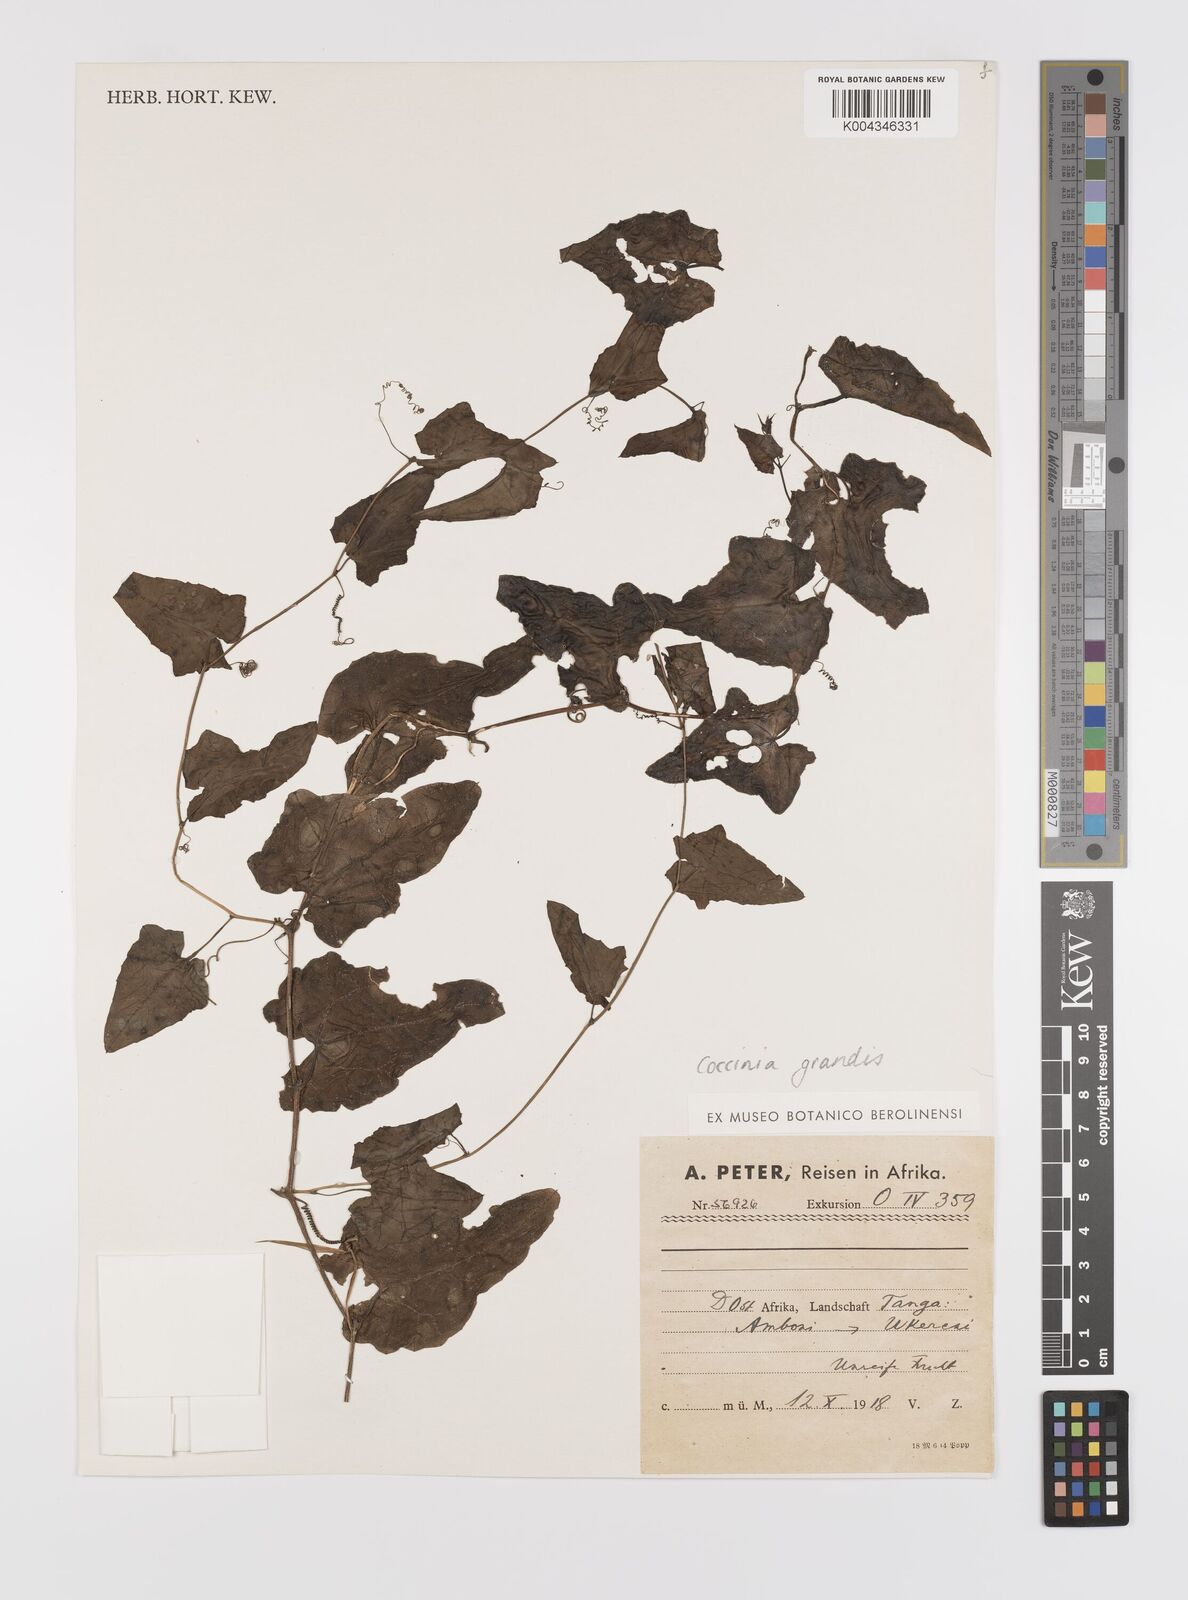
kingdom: Plantae
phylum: Tracheophyta
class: Magnoliopsida
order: Cucurbitales
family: Cucurbitaceae
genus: Coccinia
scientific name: Coccinia grandis
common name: Ivy gourd
